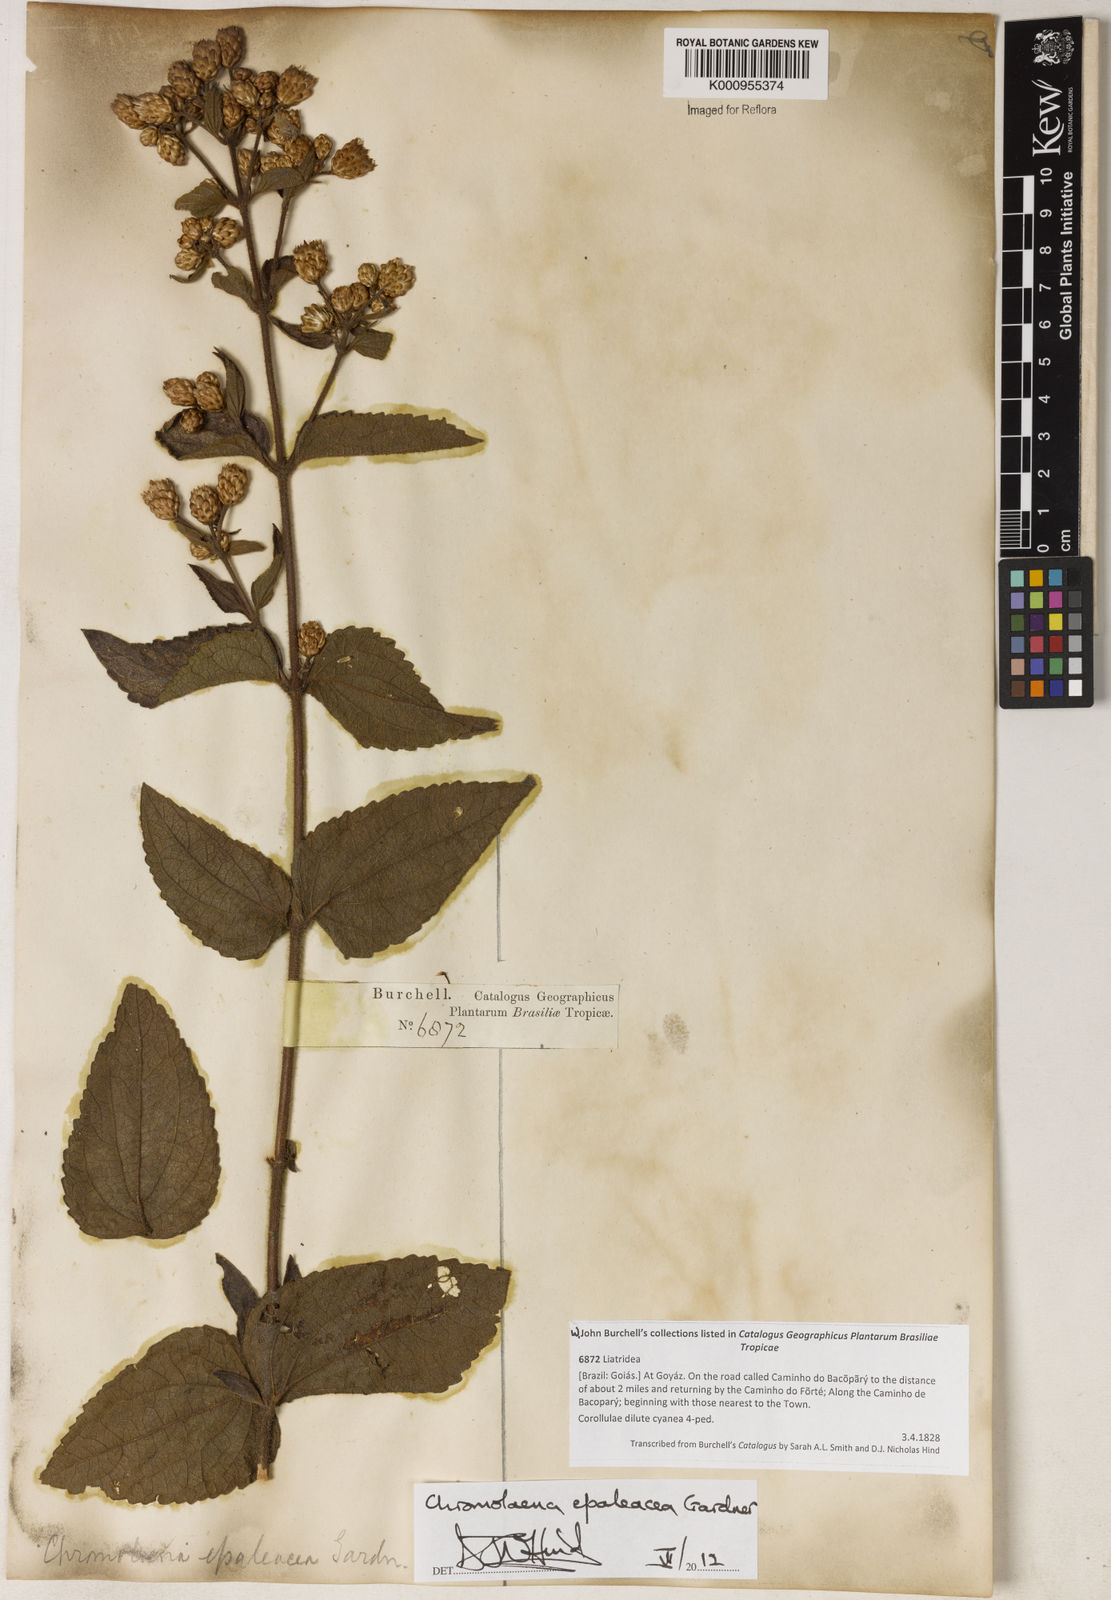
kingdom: Plantae
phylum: Tracheophyta
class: Magnoliopsida
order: Asterales
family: Asteraceae
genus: Chromolaena
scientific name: Chromolaena
